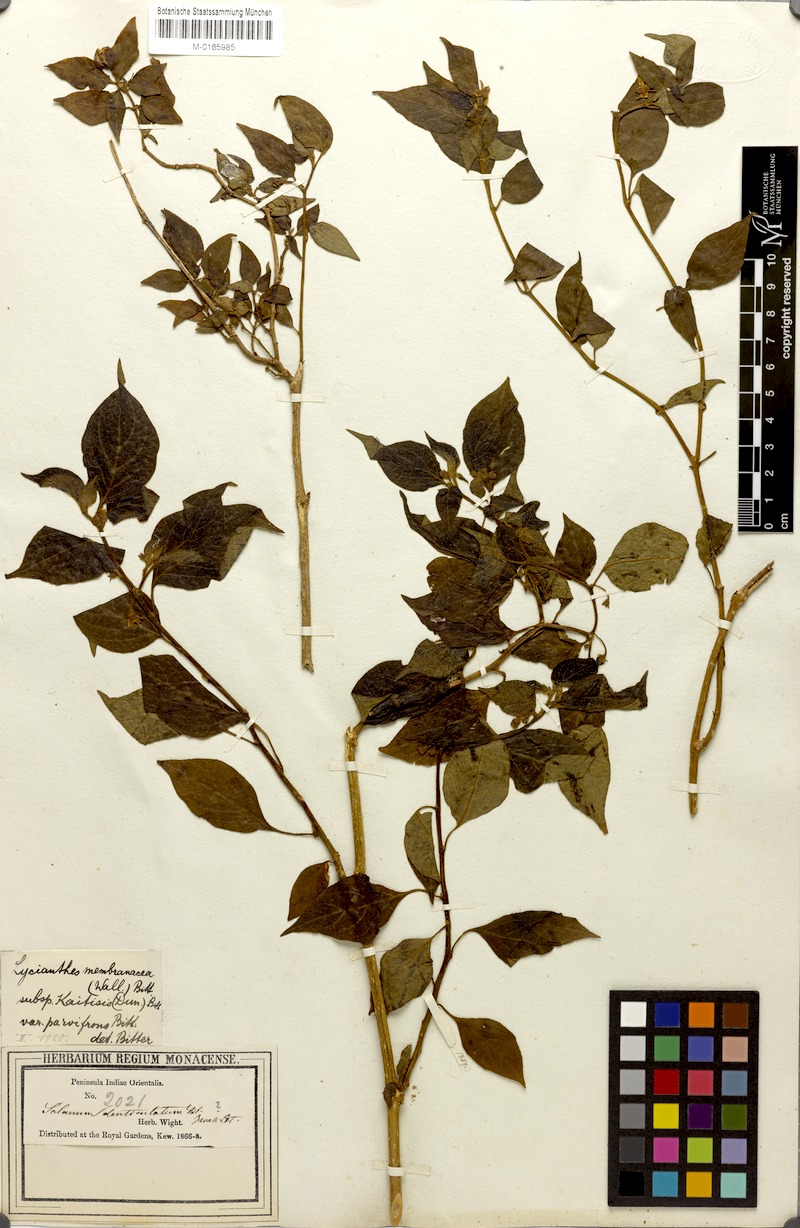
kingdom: Plantae
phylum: Tracheophyta
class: Magnoliopsida
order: Solanales
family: Solanaceae
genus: Lycianthes
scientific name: Lycianthes bigeminata
